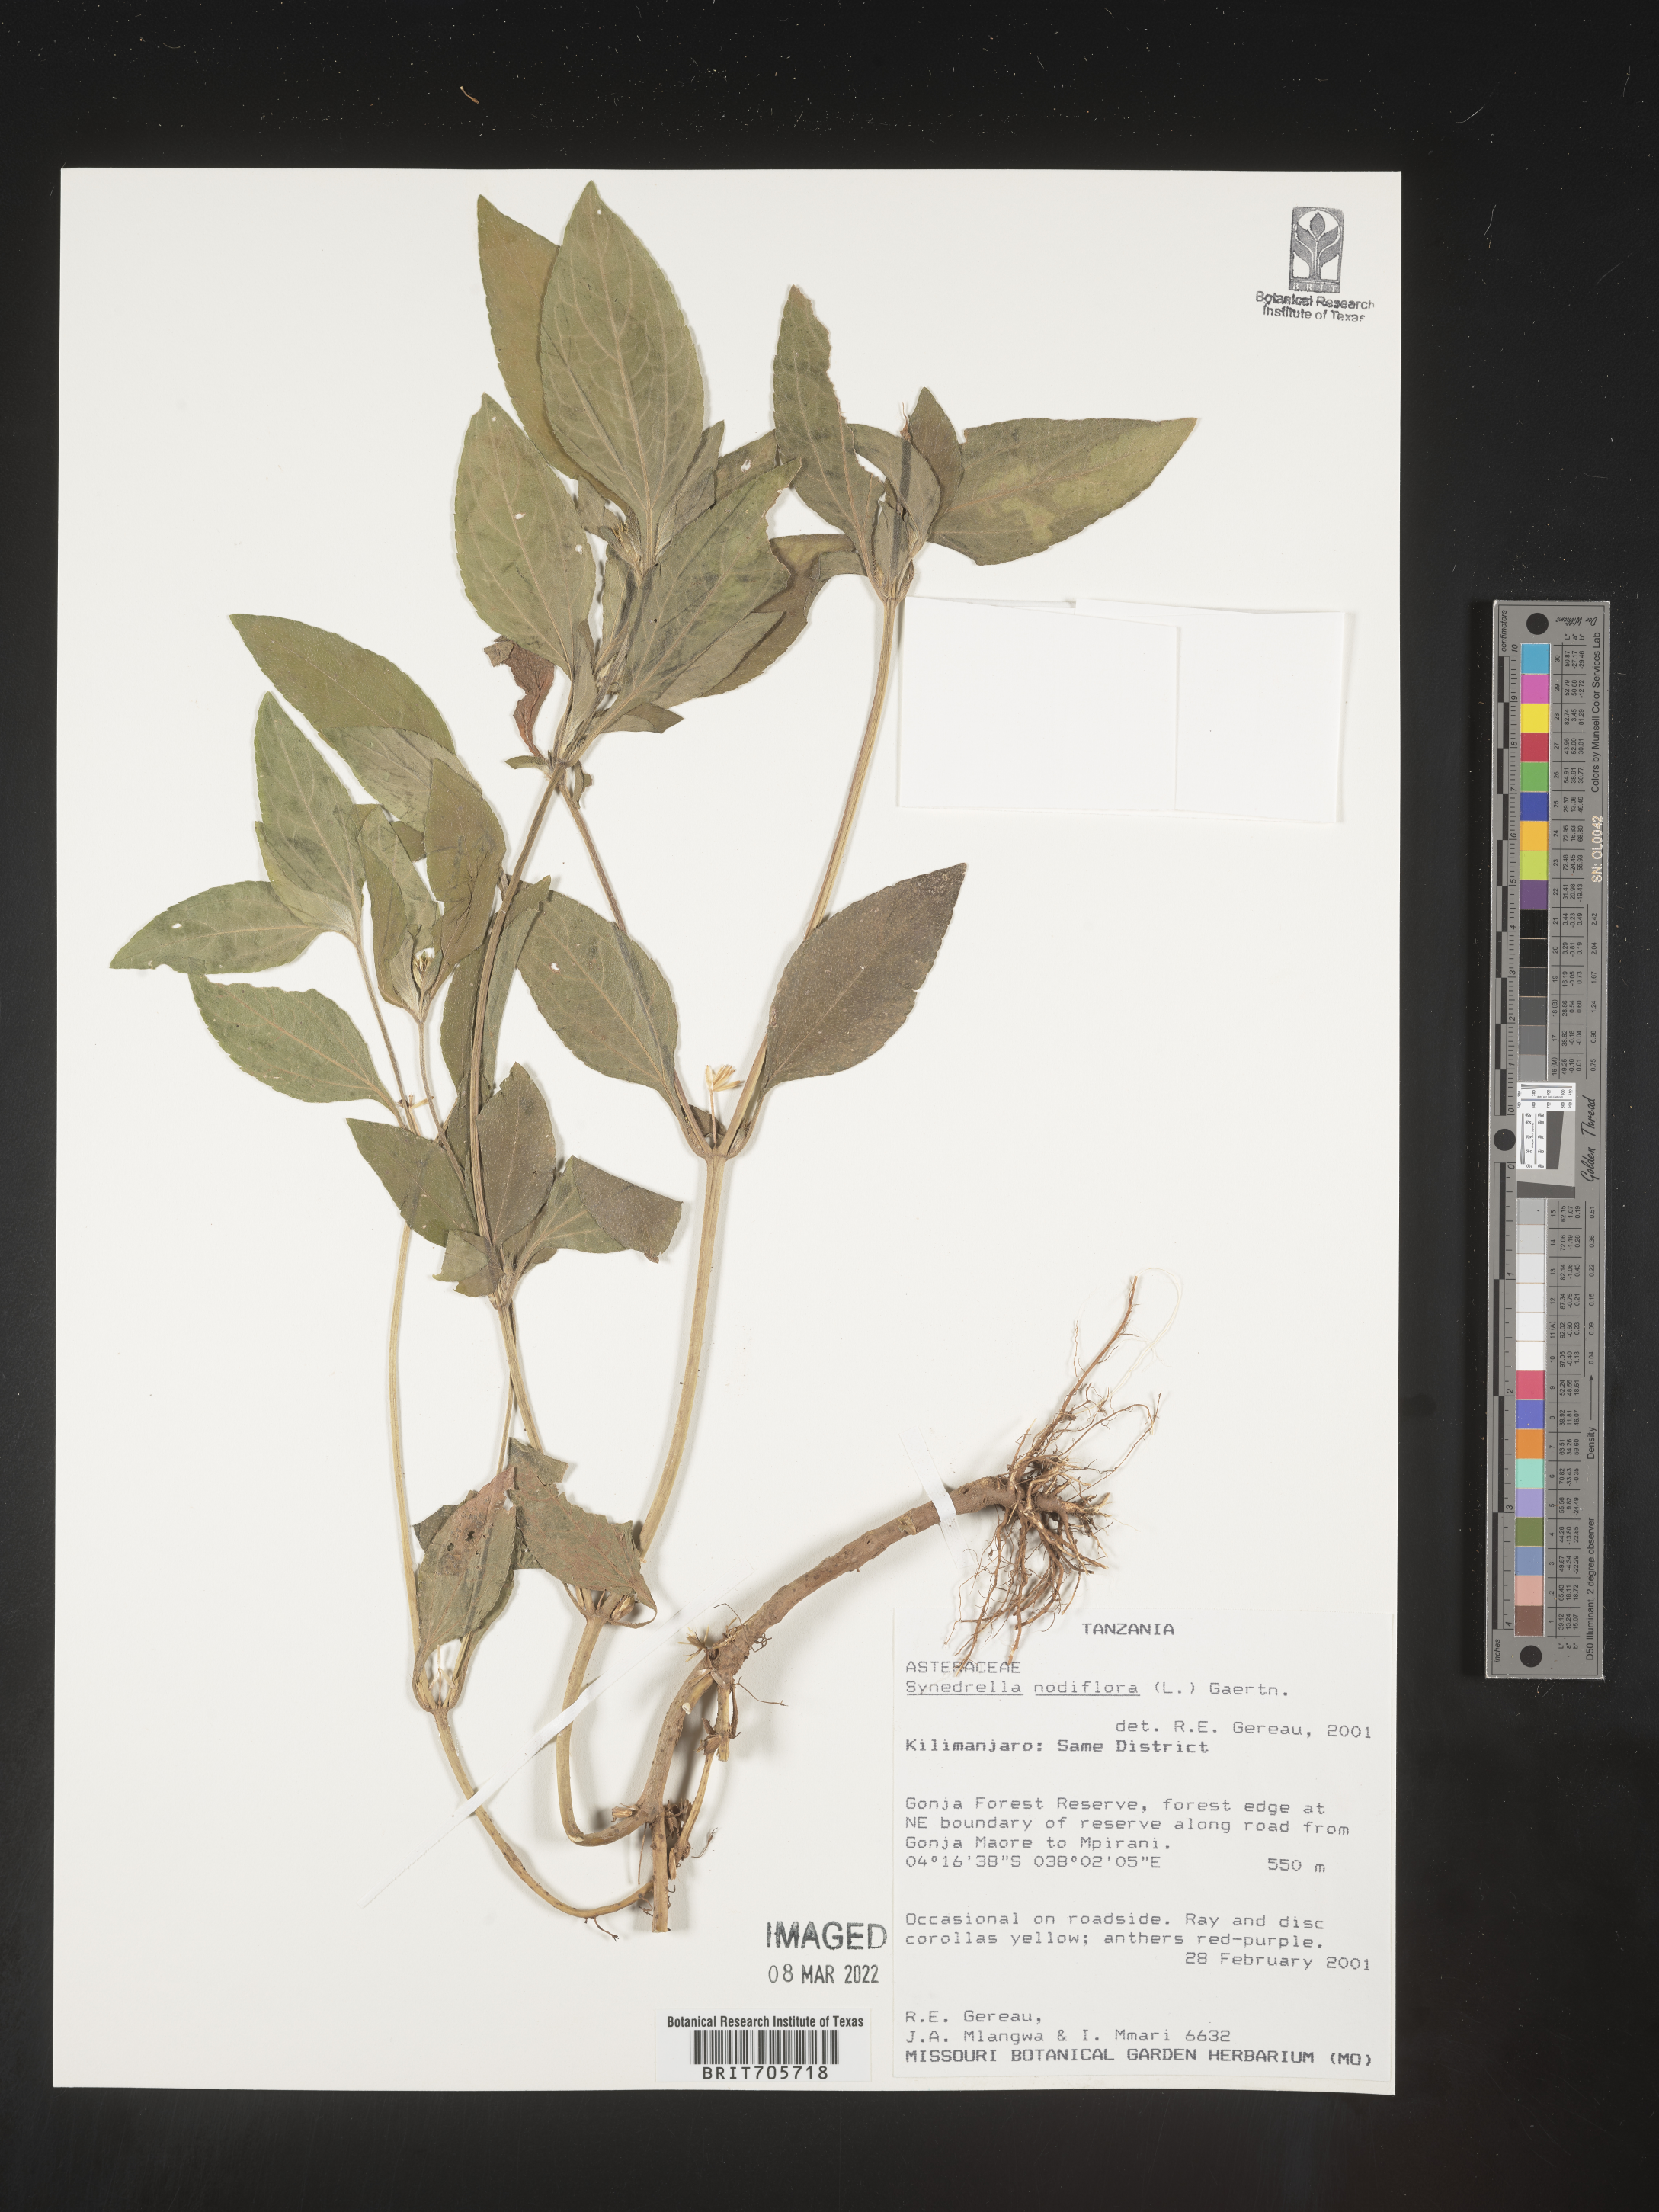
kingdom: Plantae
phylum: Tracheophyta
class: Magnoliopsida
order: Asterales
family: Asteraceae
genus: Synedrella
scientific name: Synedrella
